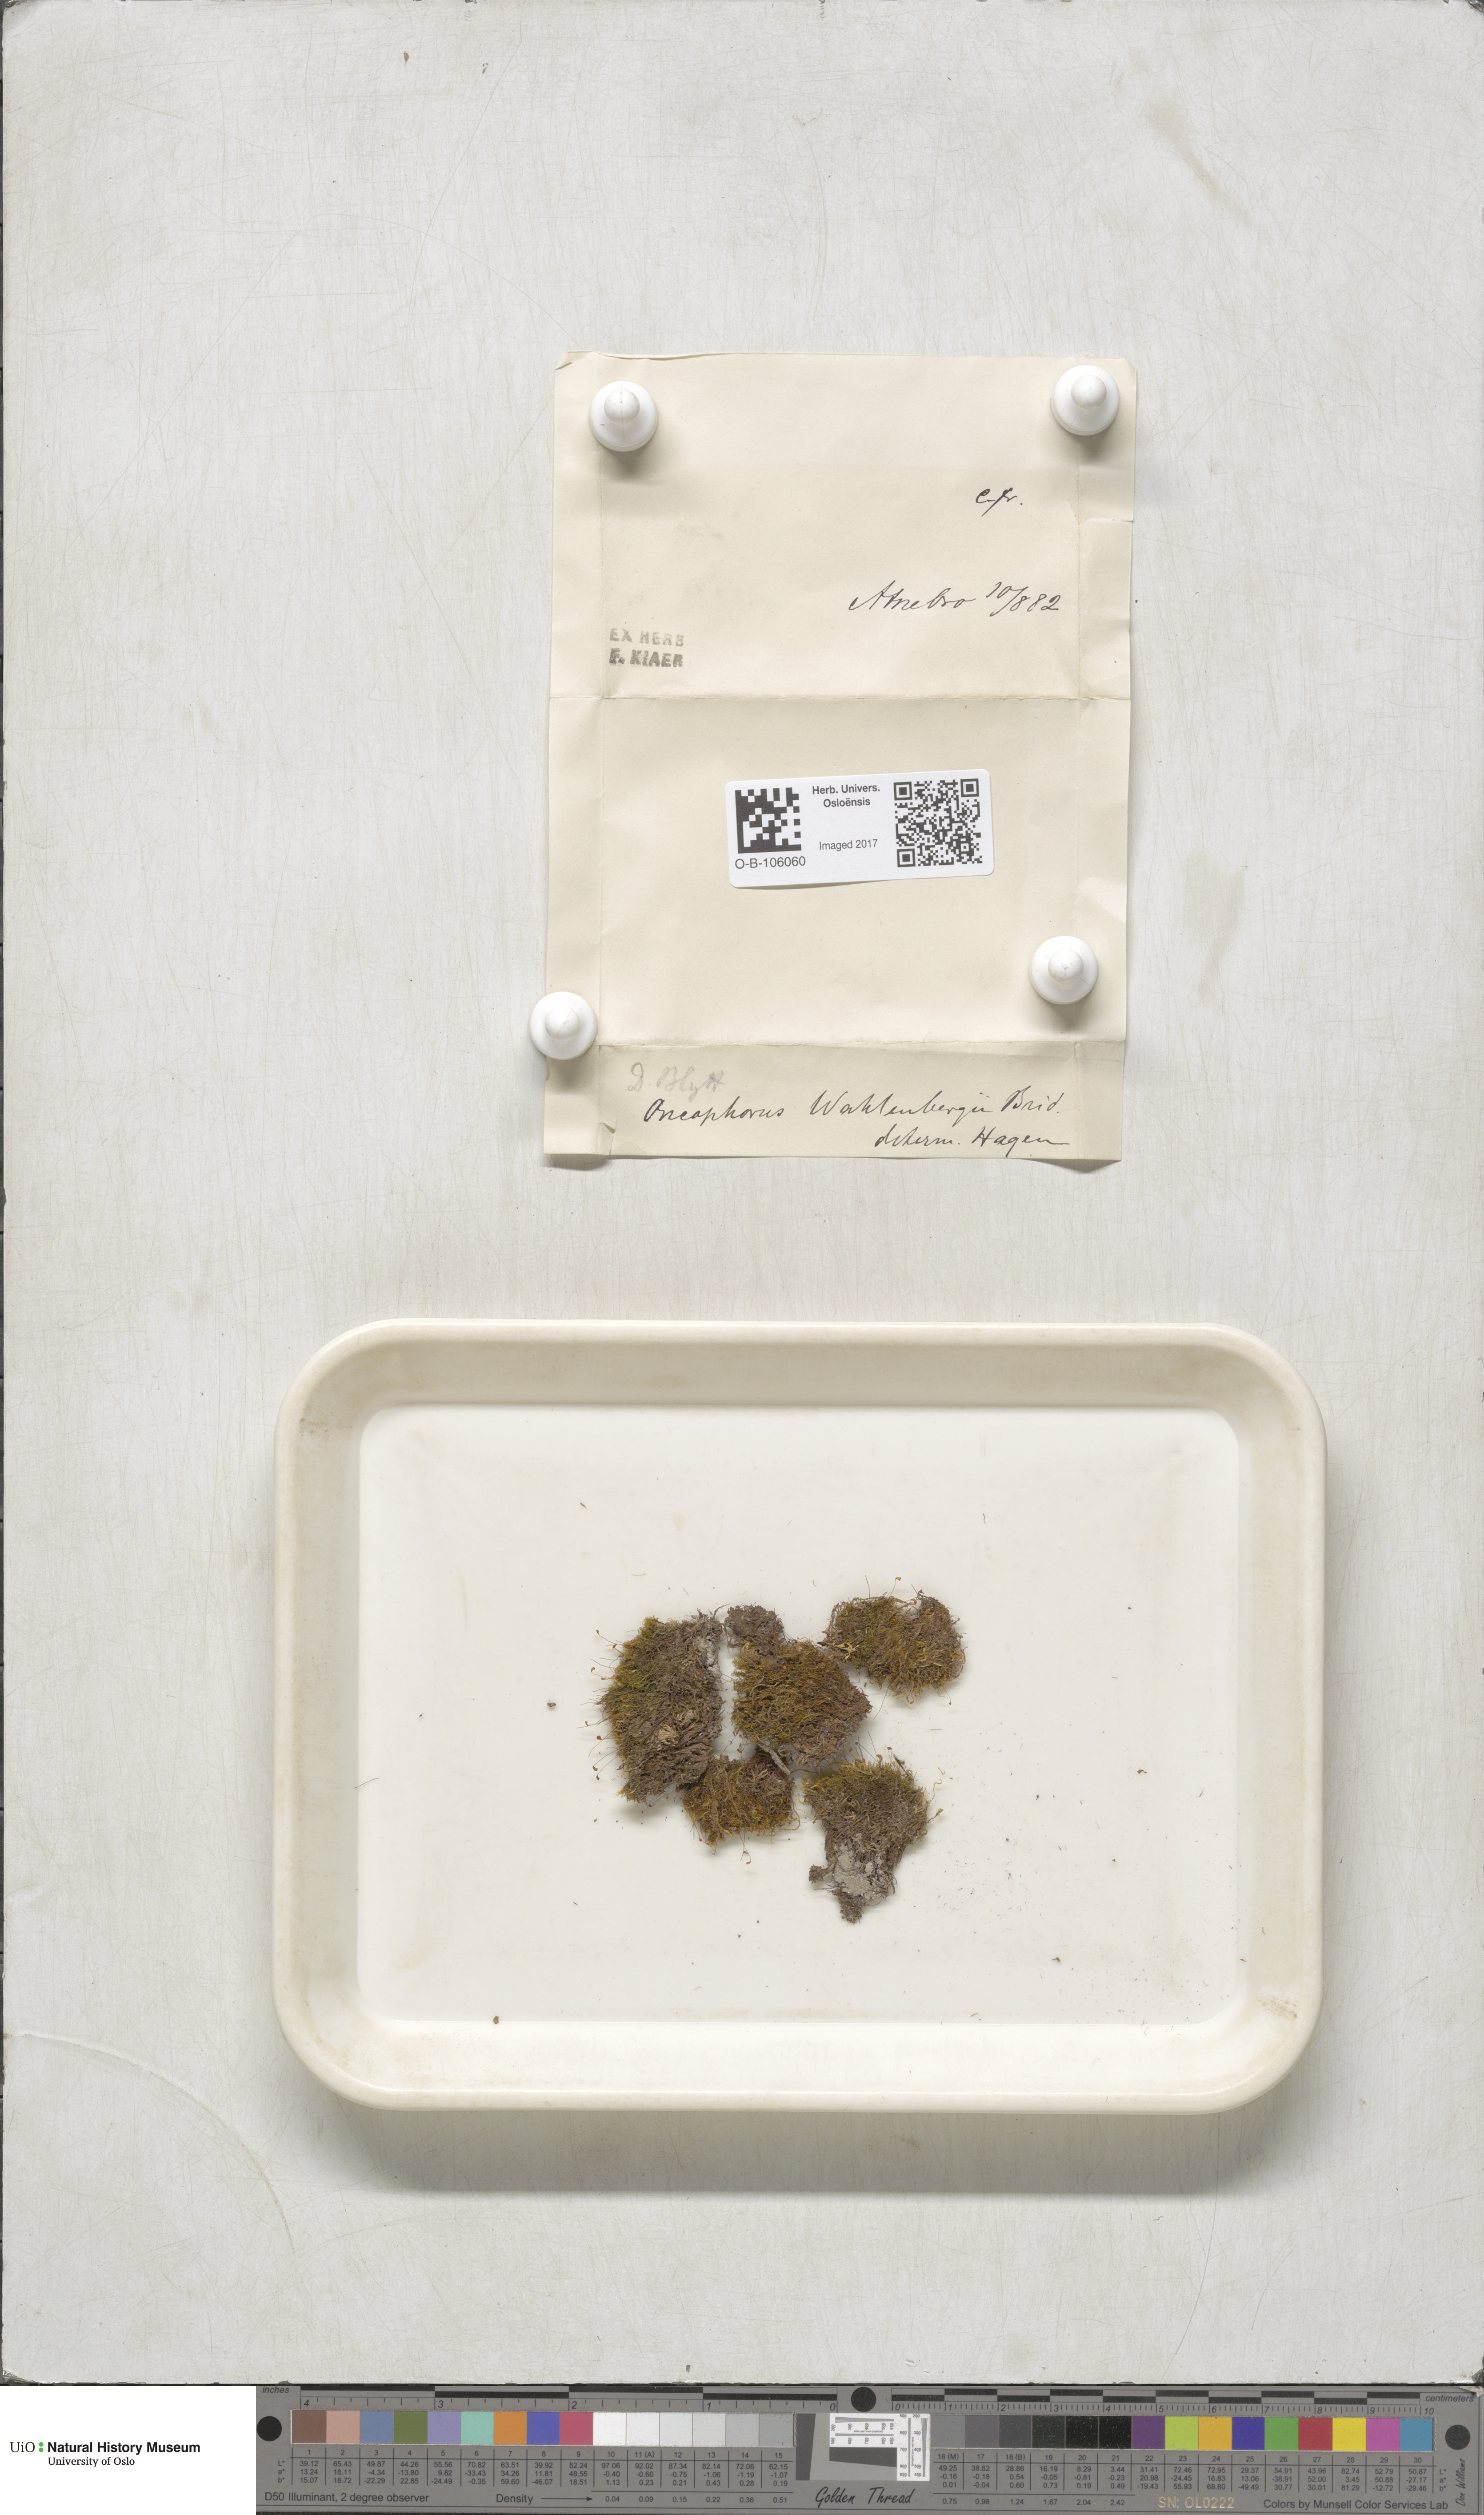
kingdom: Plantae
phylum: Bryophyta
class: Bryopsida
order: Dicranales
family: Rhabdoweisiaceae
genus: Brideliella
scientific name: Brideliella wahlenbergii
